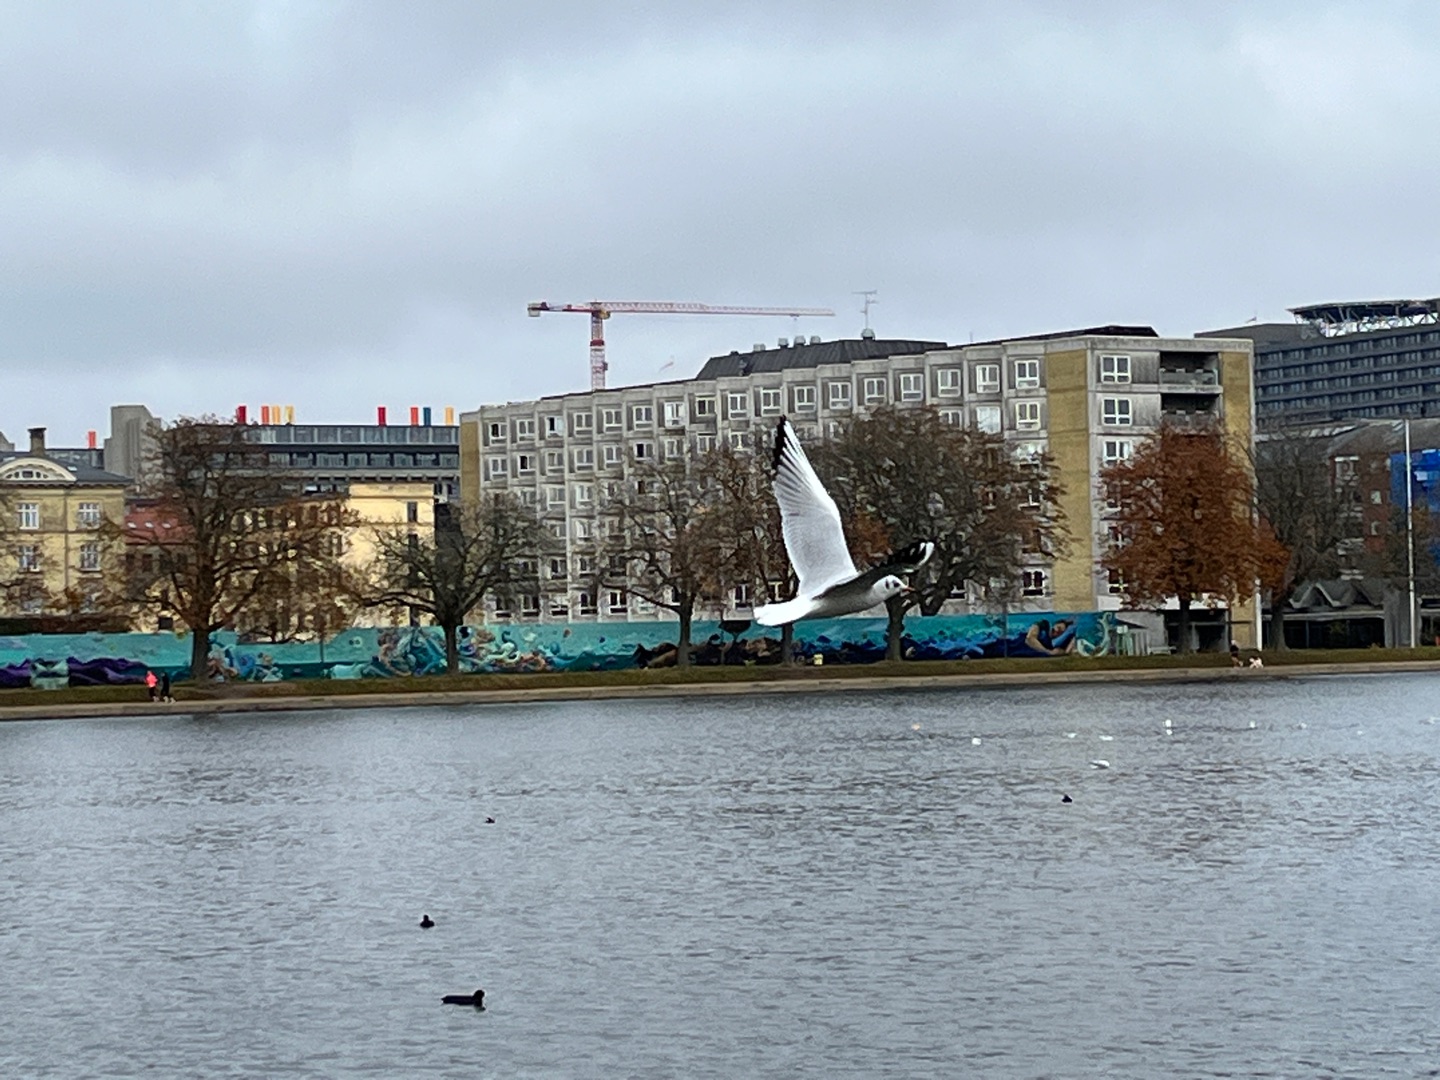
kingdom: Animalia
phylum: Chordata
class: Aves
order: Charadriiformes
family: Laridae
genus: Chroicocephalus
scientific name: Chroicocephalus ridibundus
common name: Hættemåge
